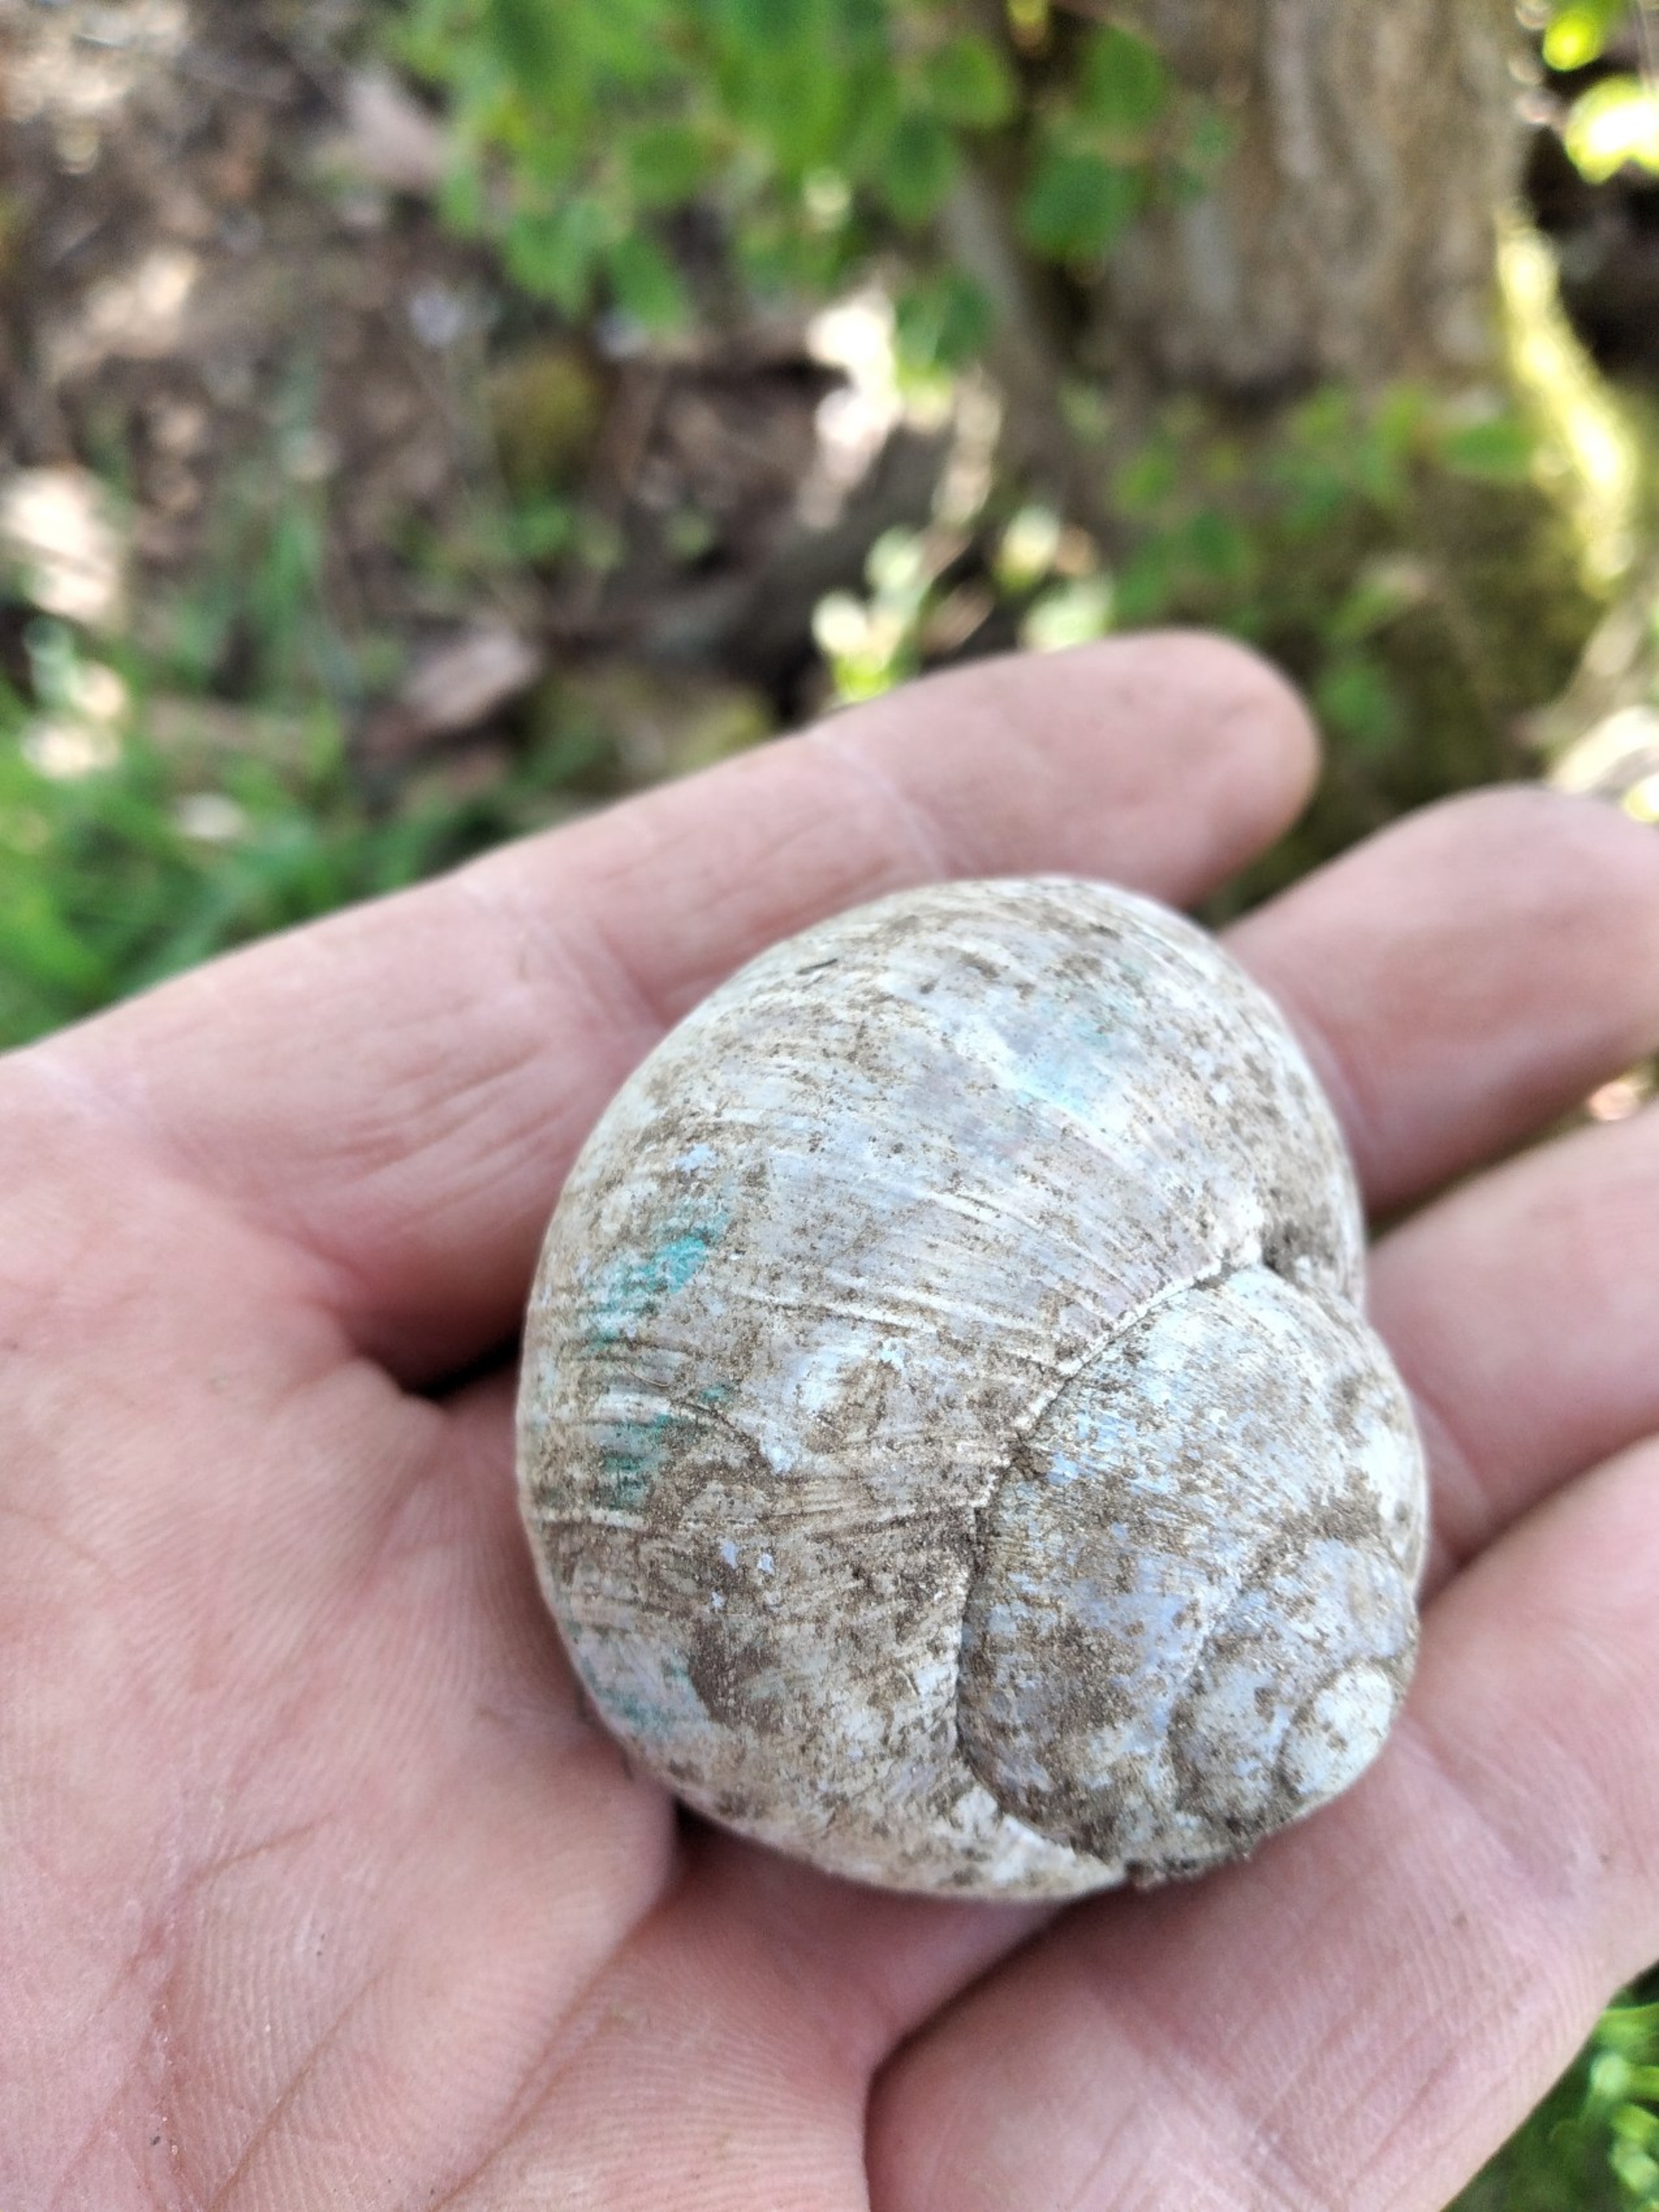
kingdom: Animalia
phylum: Mollusca
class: Gastropoda
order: Stylommatophora
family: Helicidae
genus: Helix
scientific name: Helix pomatia
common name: Vinbjergsnegl
